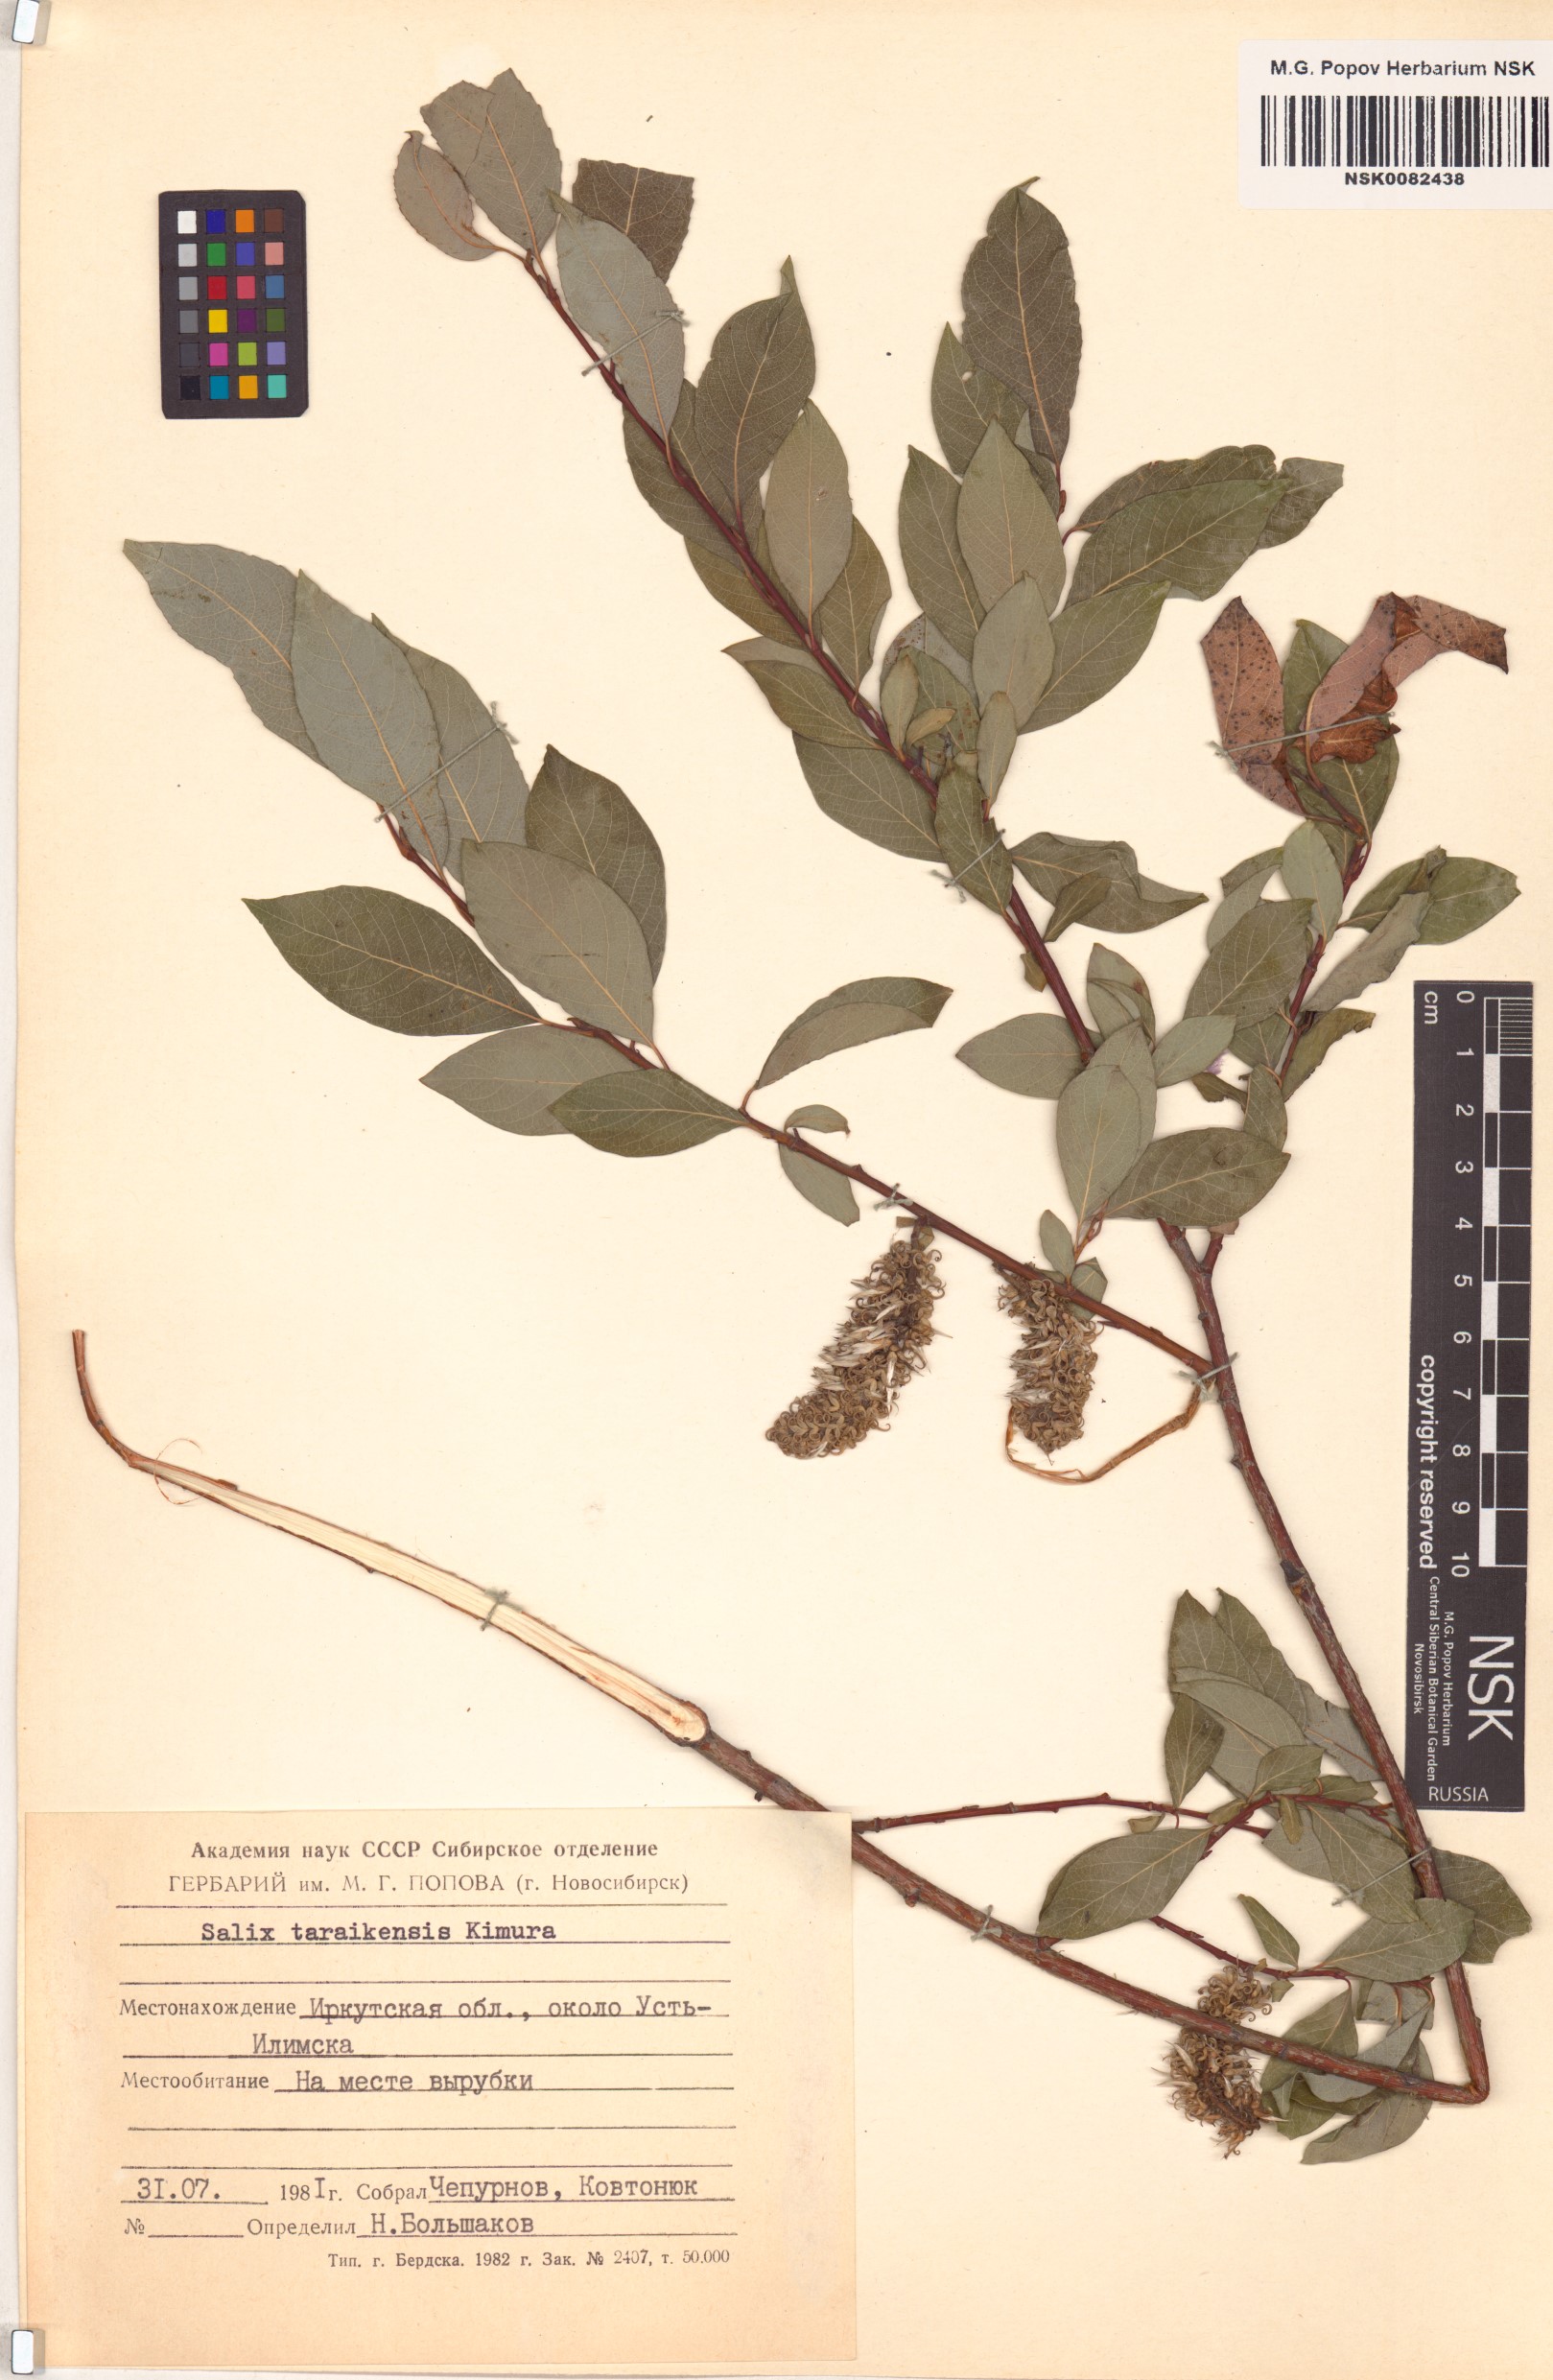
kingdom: Plantae
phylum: Tracheophyta
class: Magnoliopsida
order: Malpighiales
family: Salicaceae
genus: Salix
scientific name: Salix taraikensis
